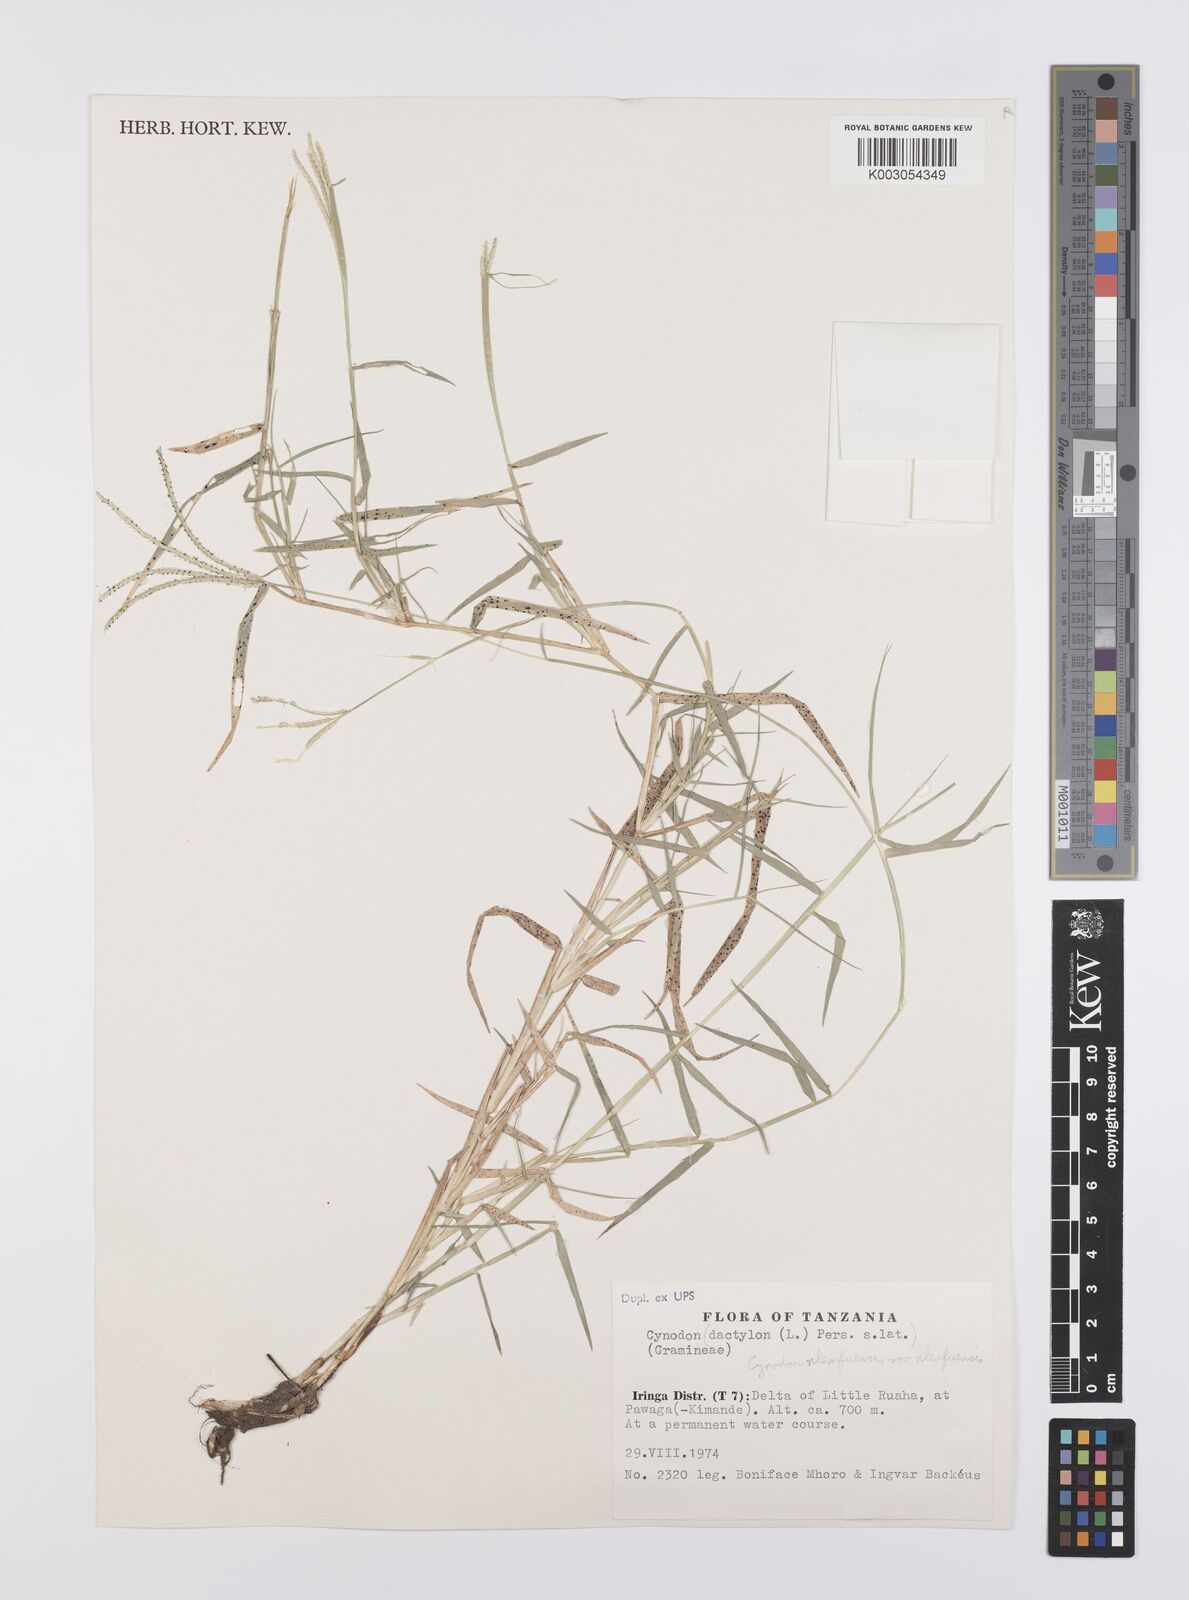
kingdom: Plantae
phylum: Tracheophyta
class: Liliopsida
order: Poales
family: Poaceae
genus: Cynodon
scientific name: Cynodon nlemfuensis
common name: African bermudagrass
